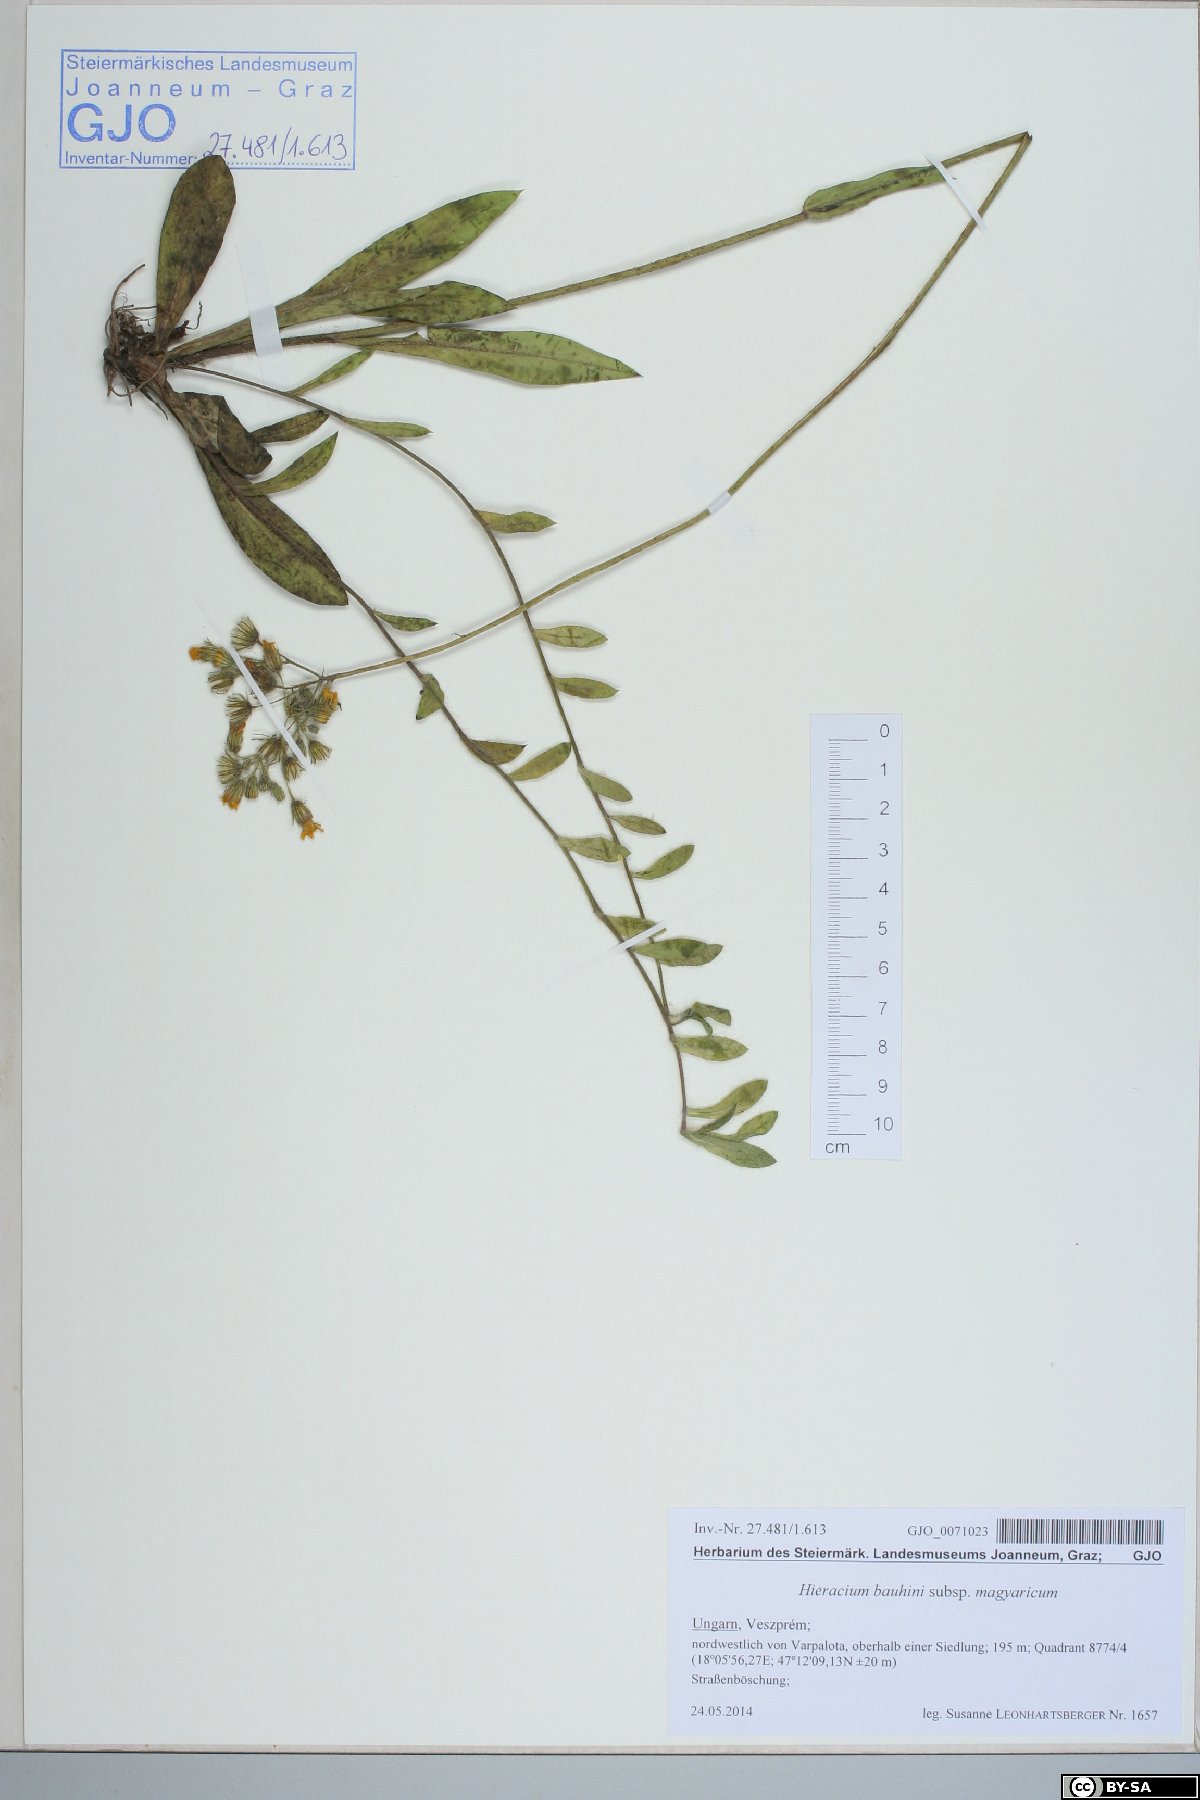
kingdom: Plantae
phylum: Tracheophyta
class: Magnoliopsida
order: Asterales
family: Asteraceae
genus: Pilosella
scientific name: Pilosella bauhini
